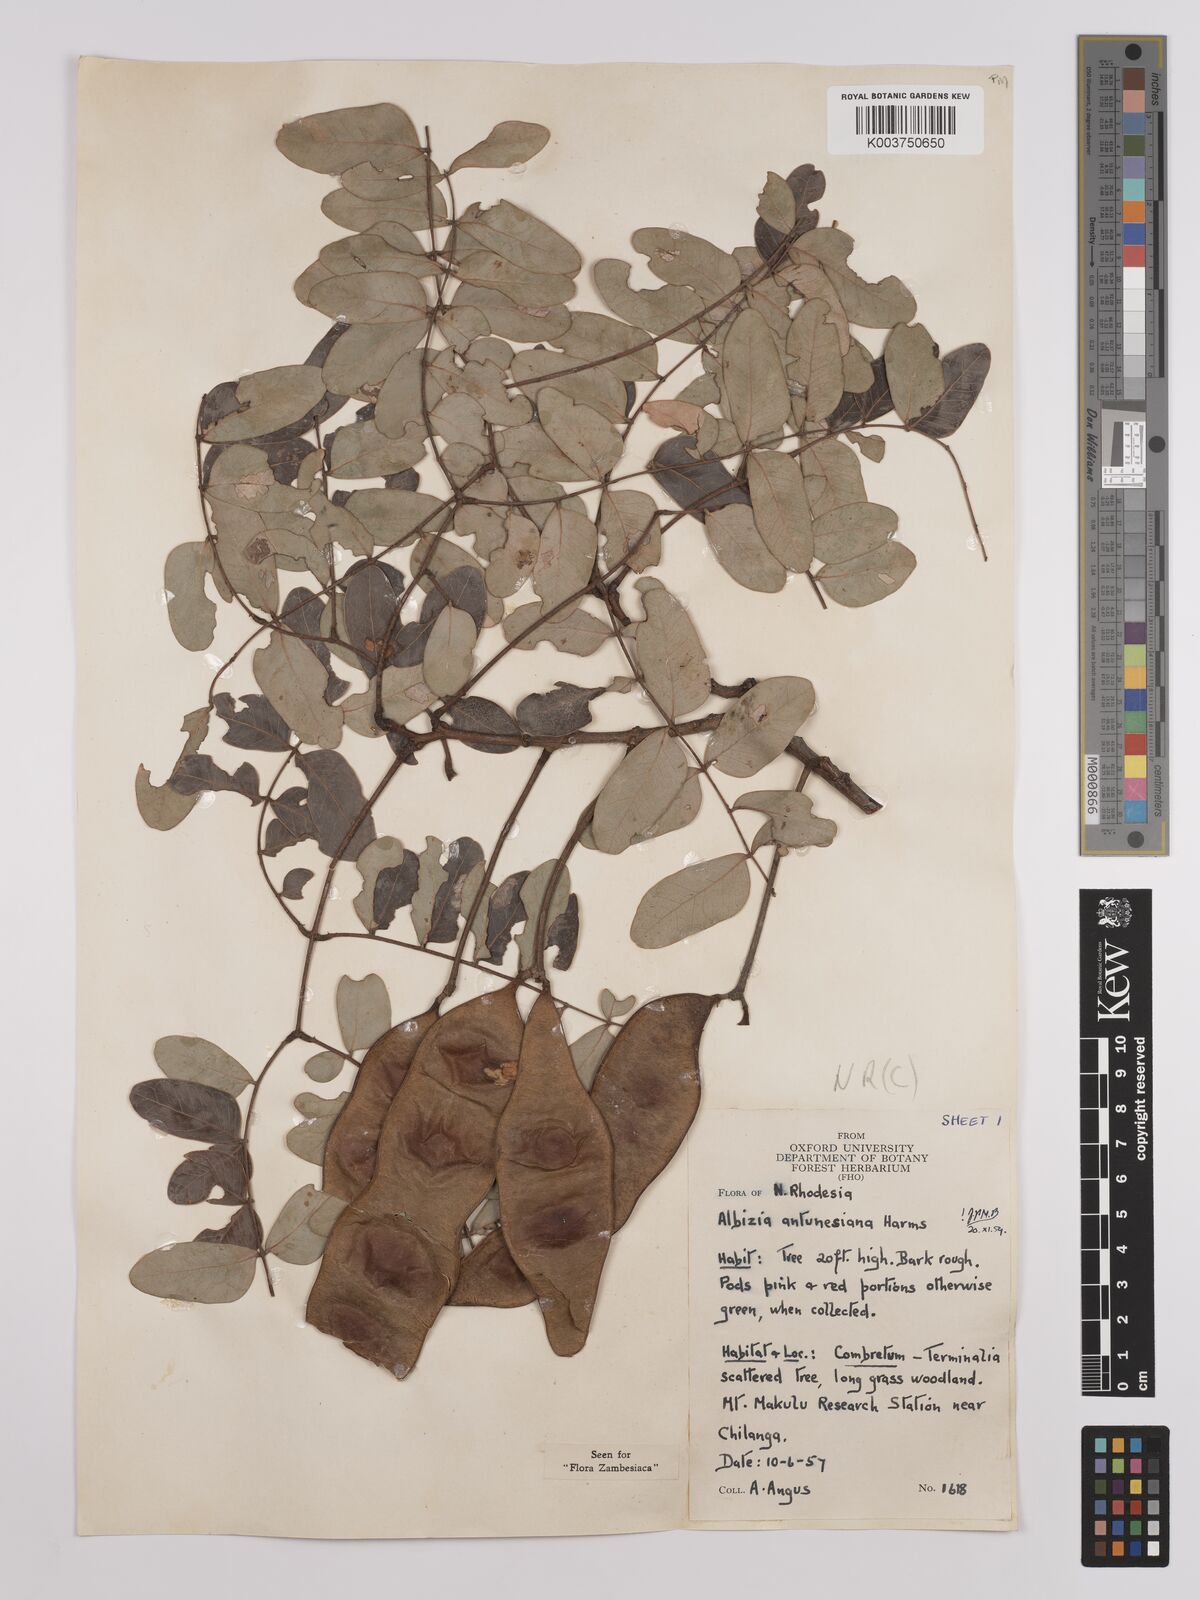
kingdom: Plantae
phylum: Tracheophyta
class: Magnoliopsida
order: Fabales
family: Fabaceae
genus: Albizia
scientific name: Albizia antunesiana
